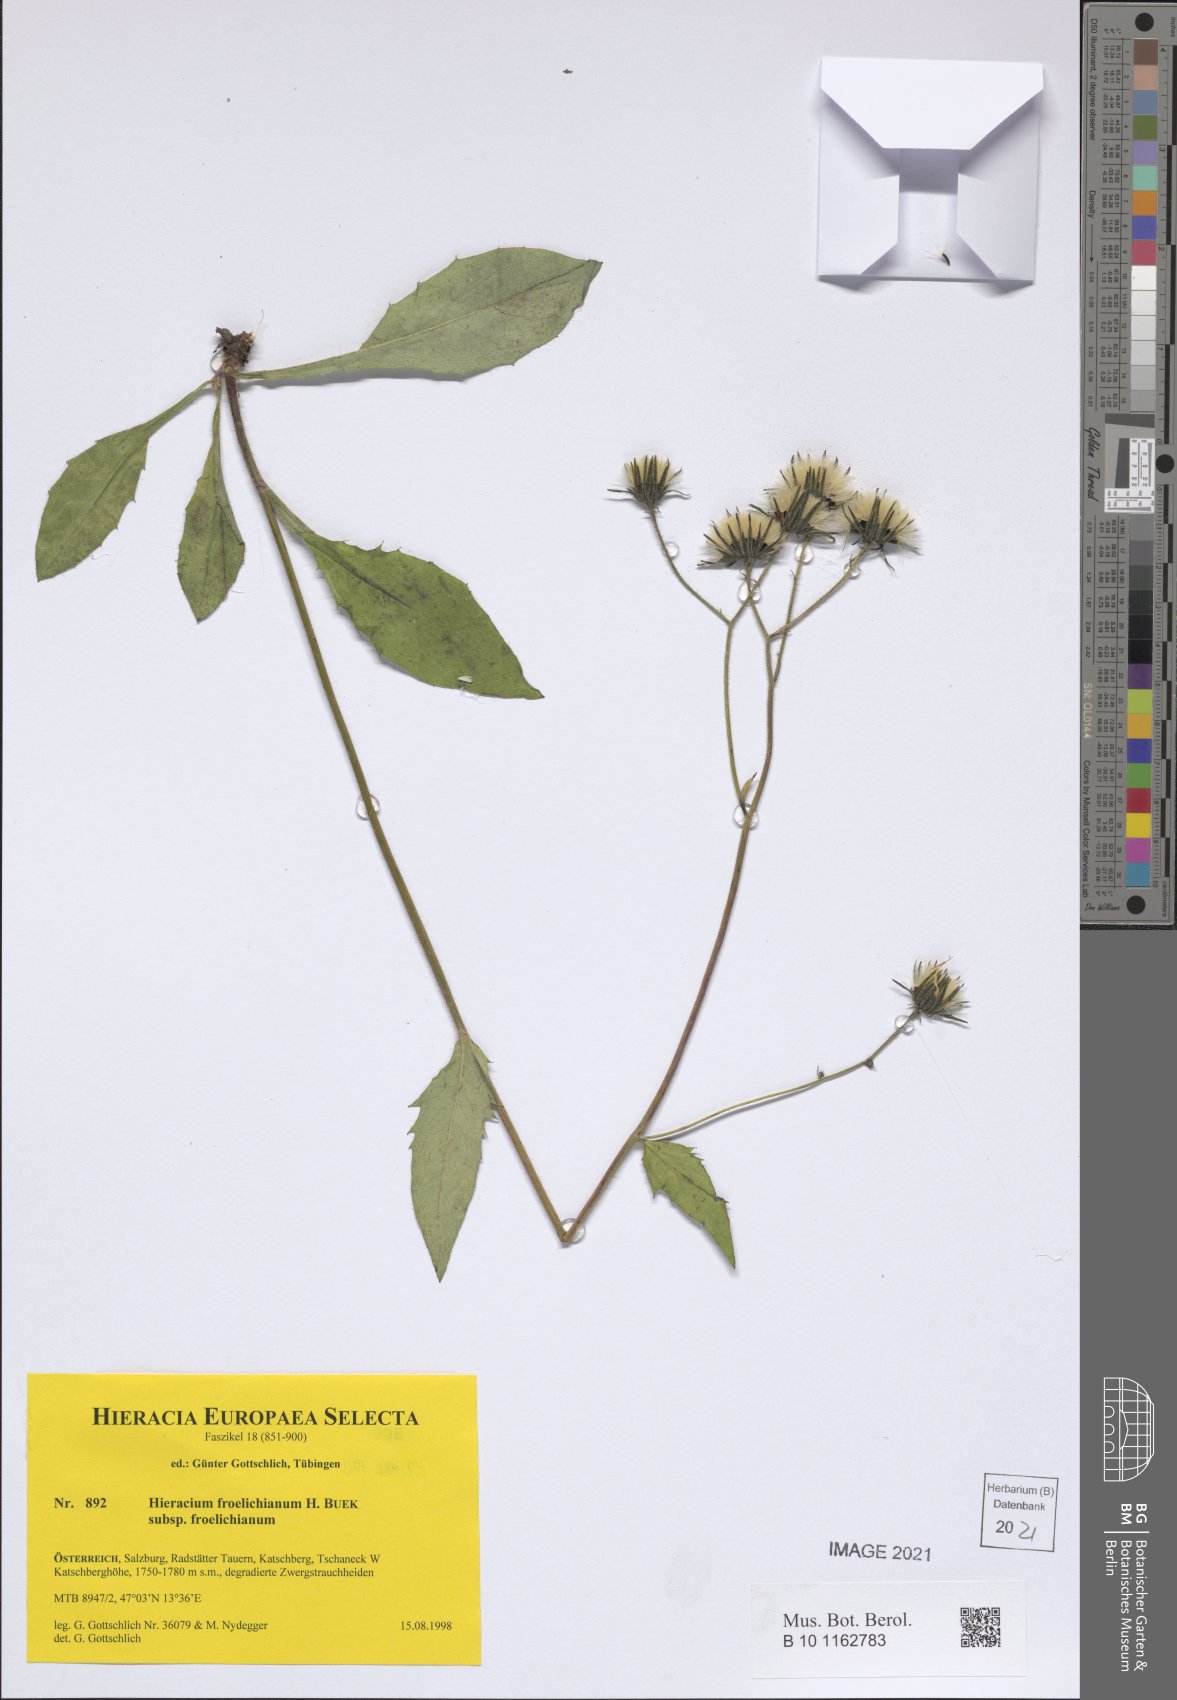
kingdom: Plantae
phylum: Tracheophyta
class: Magnoliopsida
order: Asterales
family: Asteraceae
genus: Hieracium
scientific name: Hieracium froelichianum
